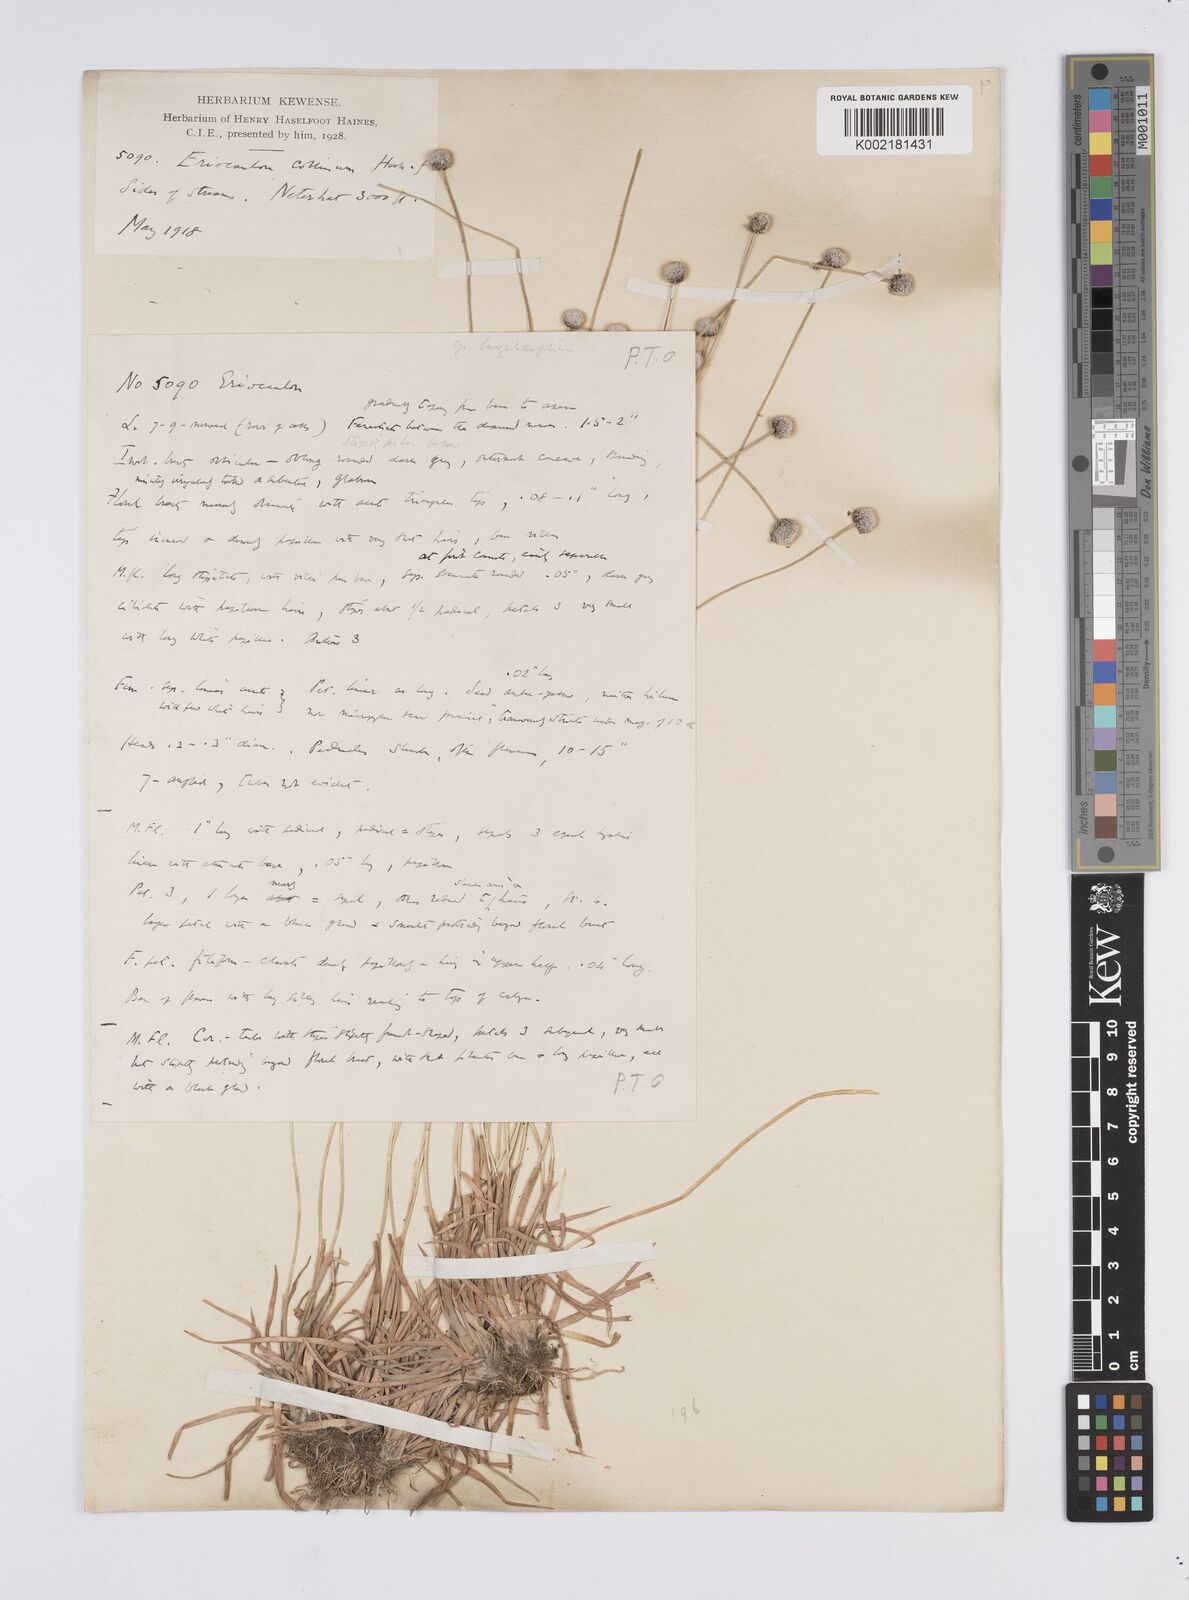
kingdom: Plantae
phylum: Tracheophyta
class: Liliopsida
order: Poales
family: Eriocaulaceae
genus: Eriocaulon
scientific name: Eriocaulon odoratum
